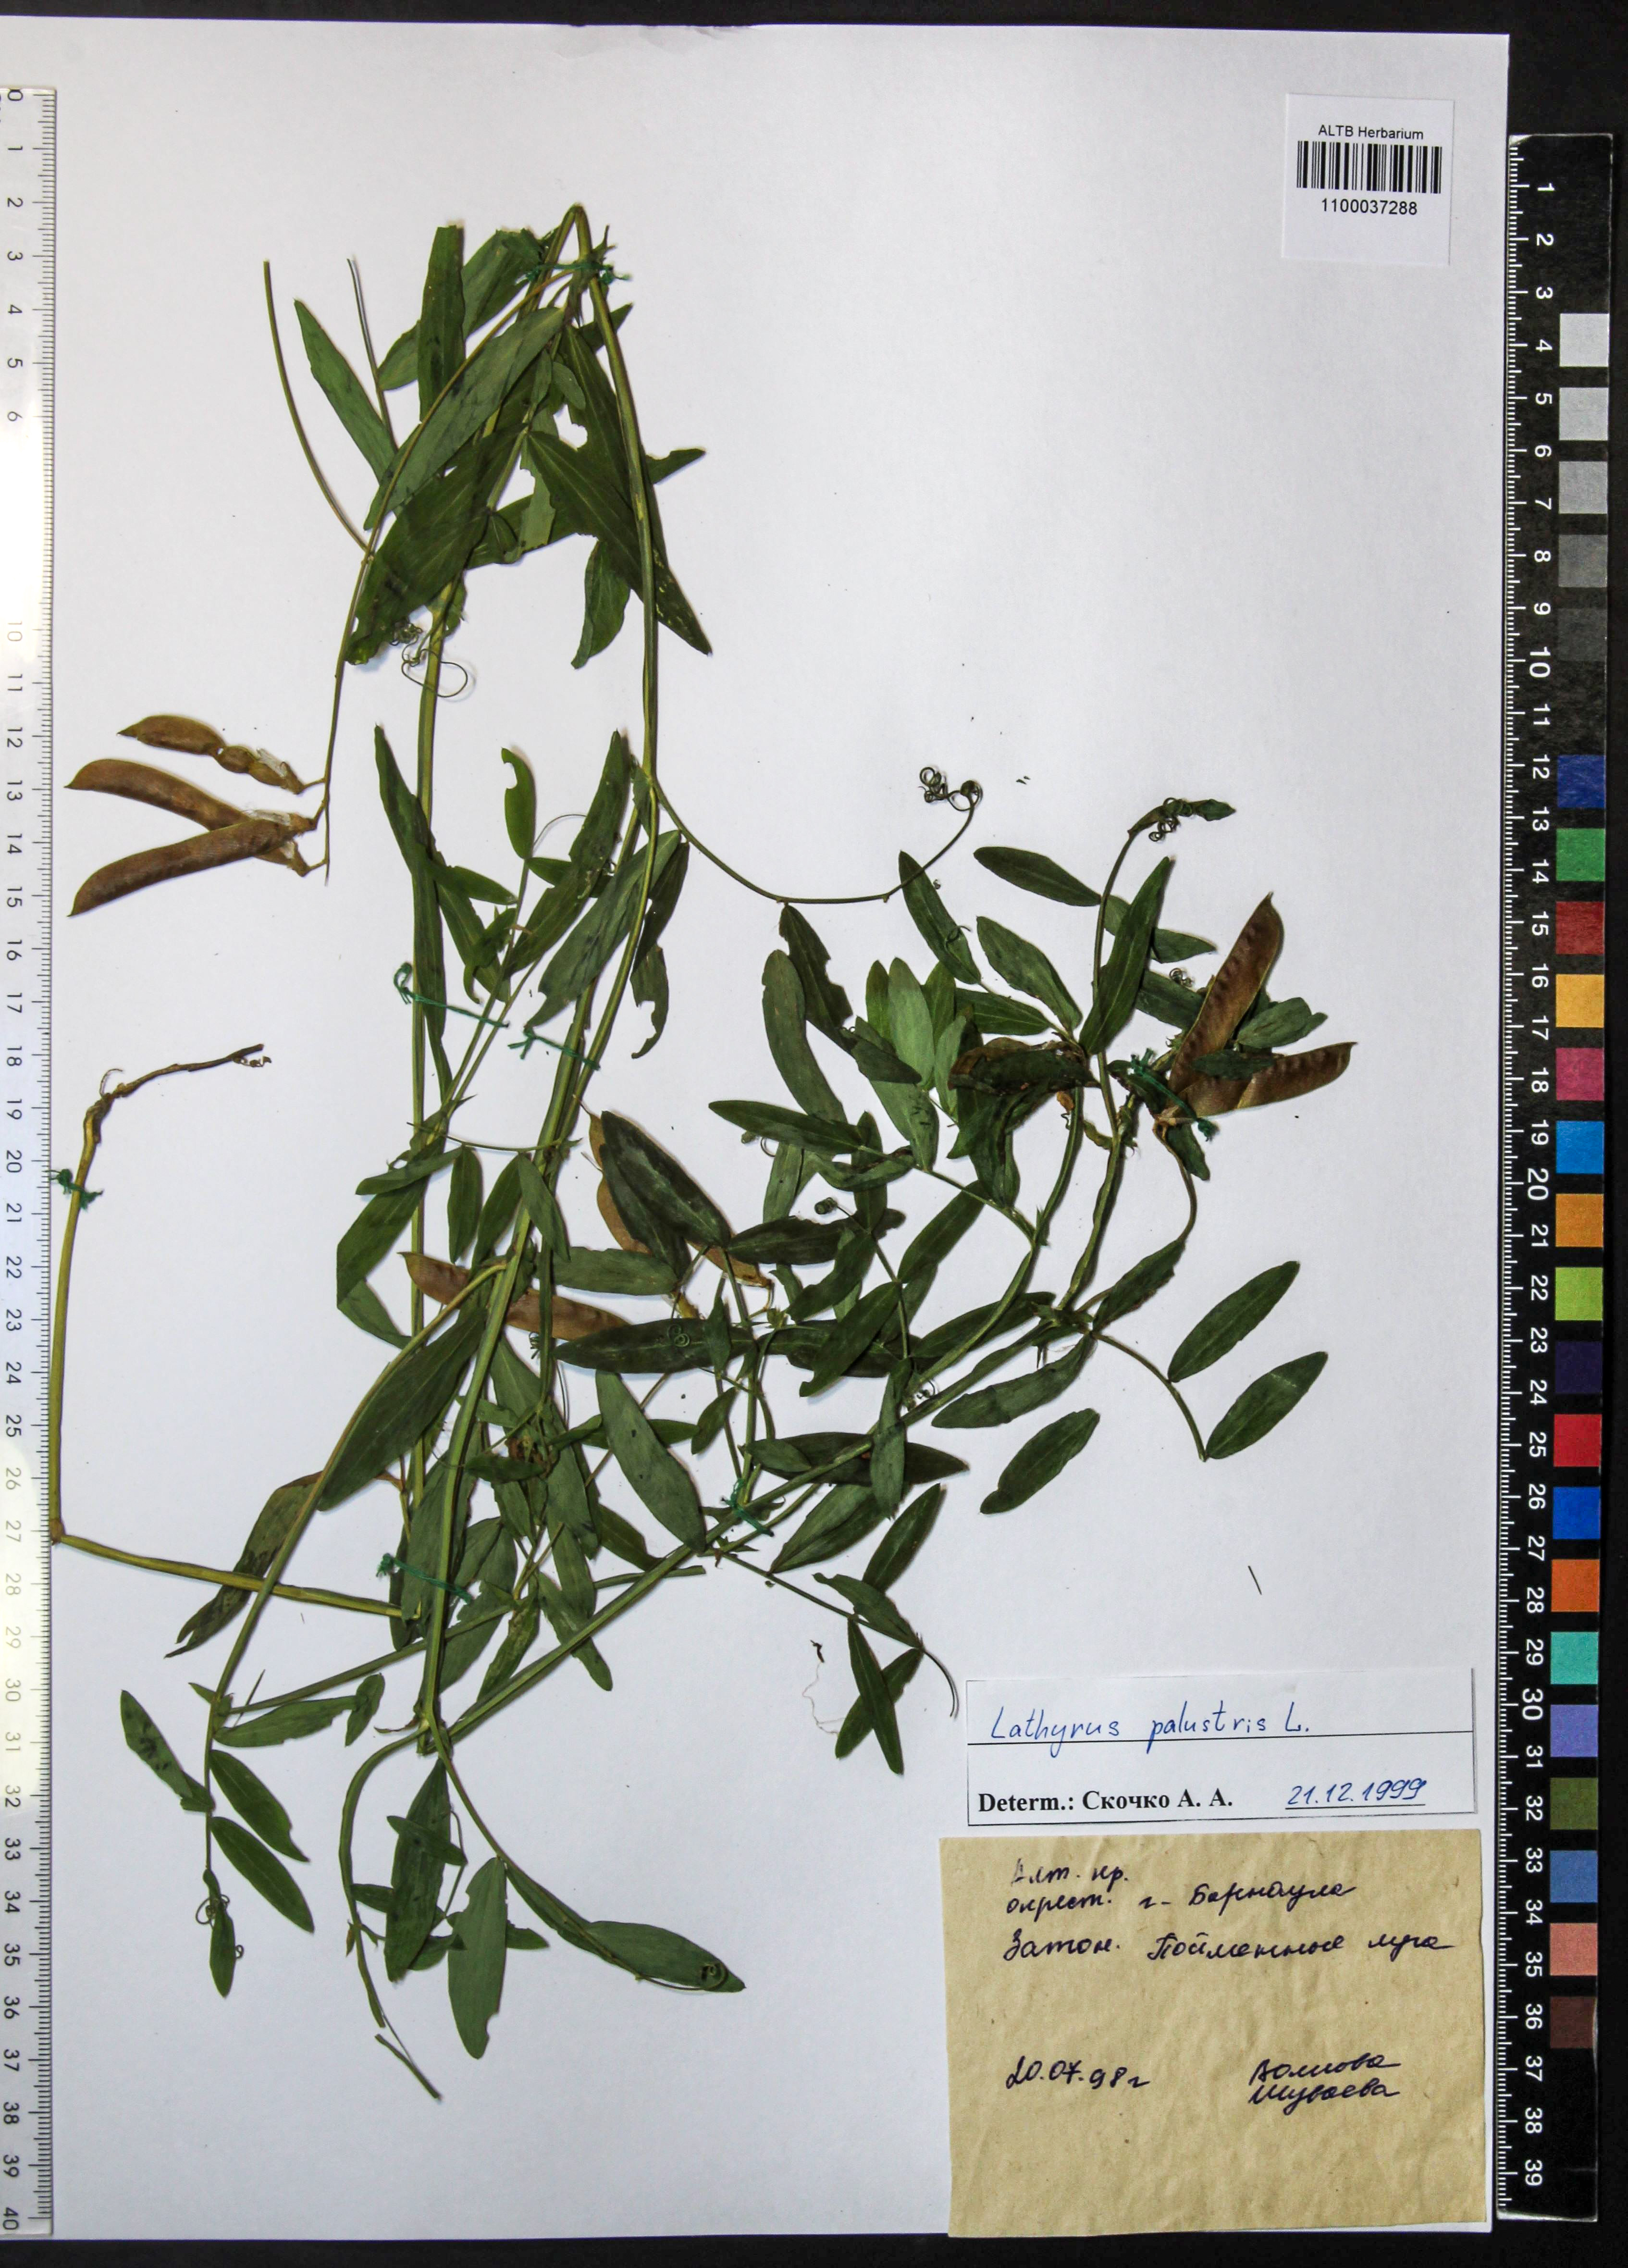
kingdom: Plantae
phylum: Tracheophyta
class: Magnoliopsida
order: Fabales
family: Fabaceae
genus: Lathyrus
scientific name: Lathyrus palustris
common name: Marsh pea
